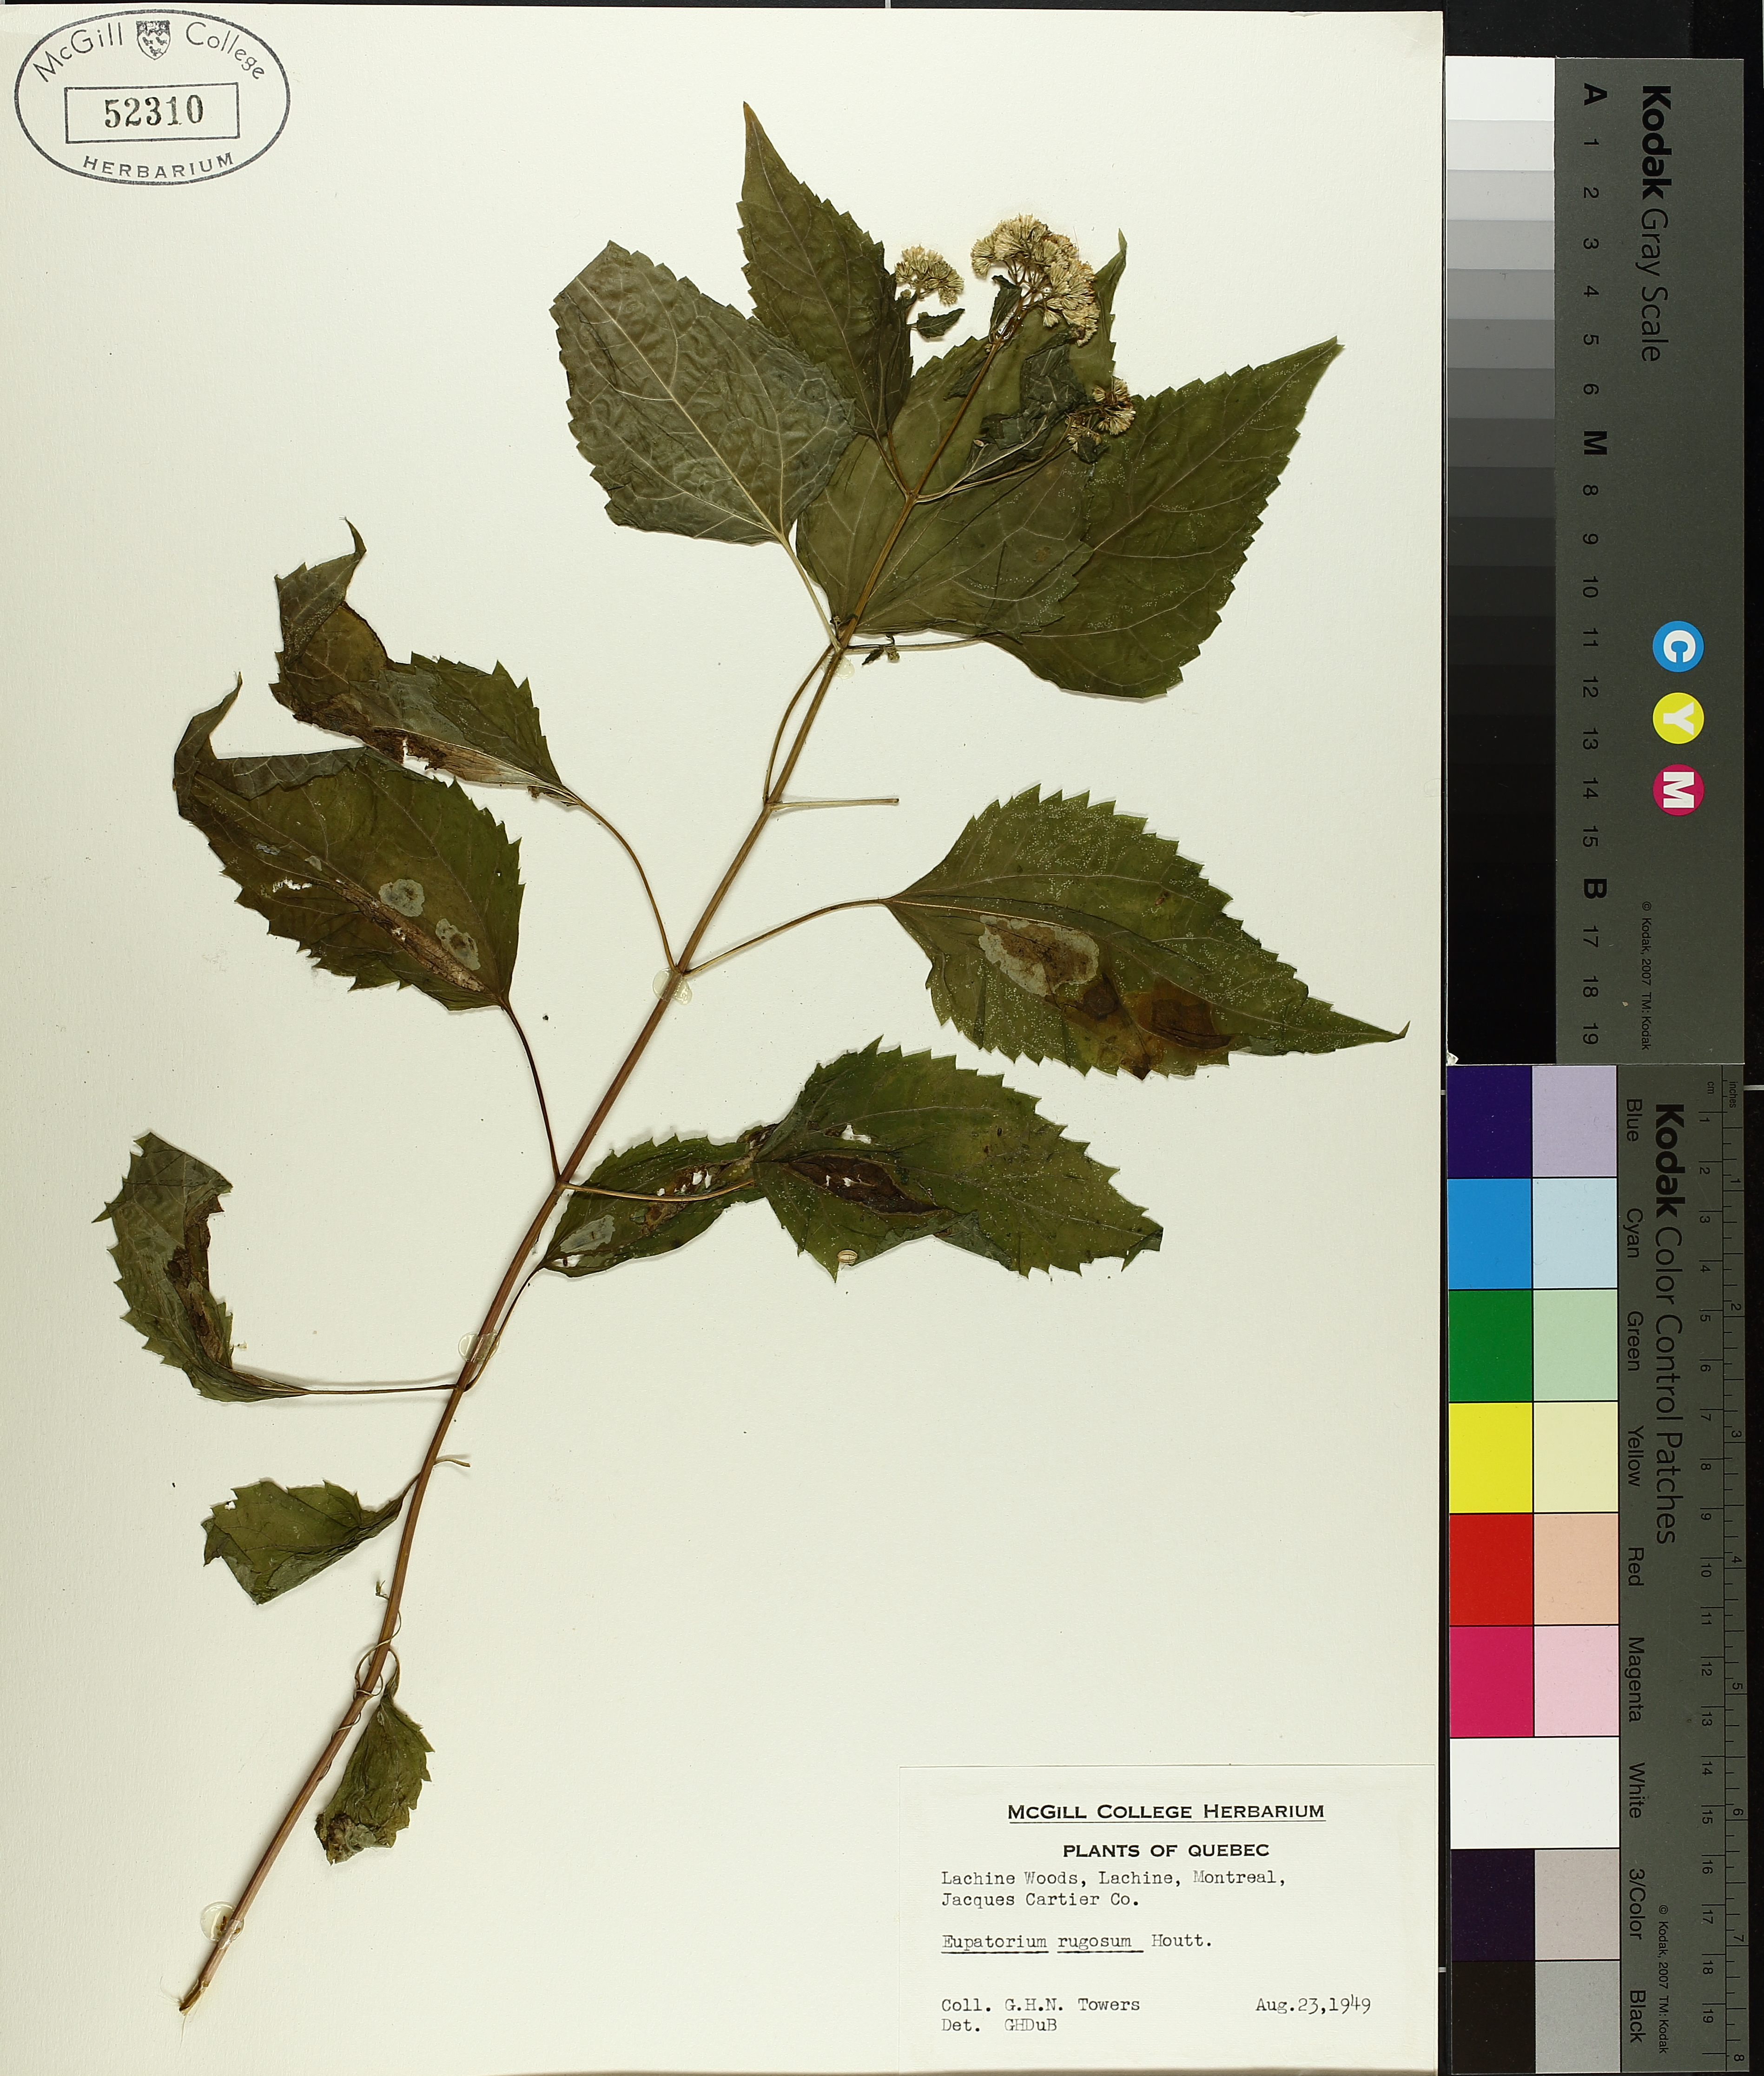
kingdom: Plantae
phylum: Tracheophyta
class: Liliopsida
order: Poales
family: Cyperaceae
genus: Carex
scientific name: Carex tribuloides
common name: Blunt broom sedge
